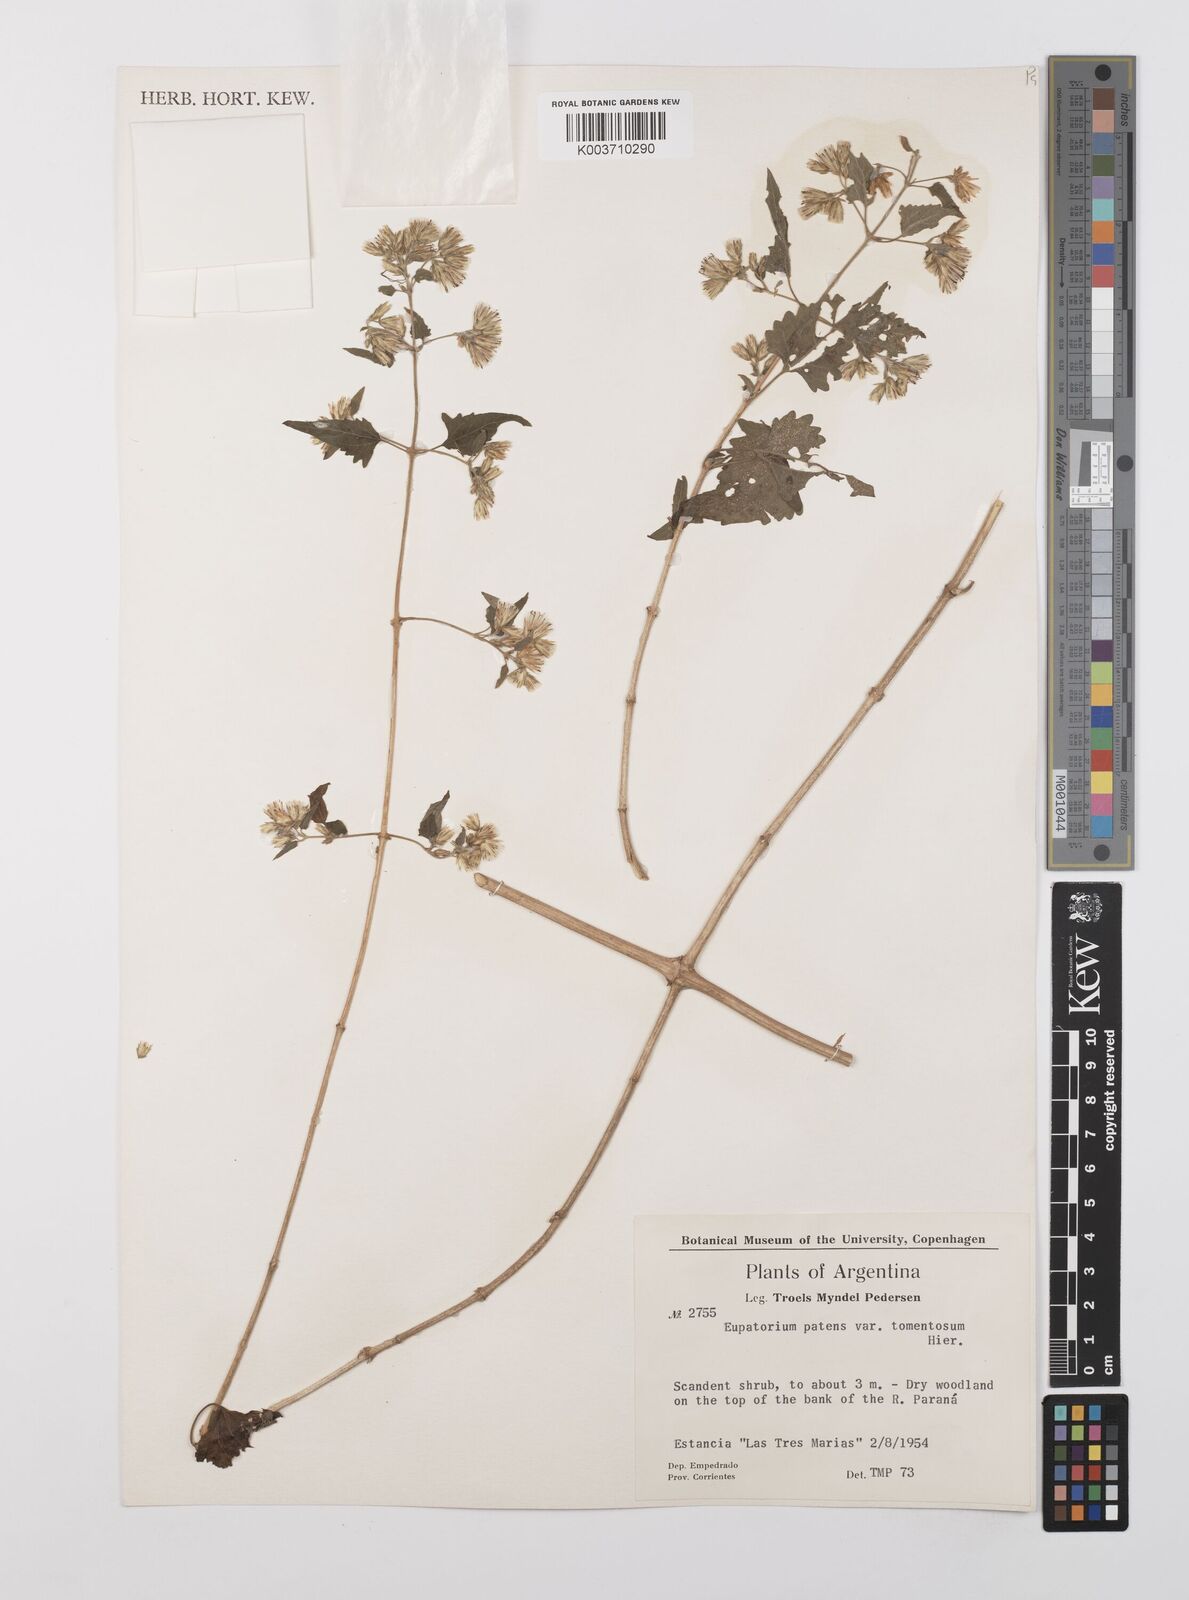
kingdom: Plantae
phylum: Tracheophyta
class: Magnoliopsida
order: Asterales
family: Asteraceae
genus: Austrobrickellia
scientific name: Austrobrickellia patens
